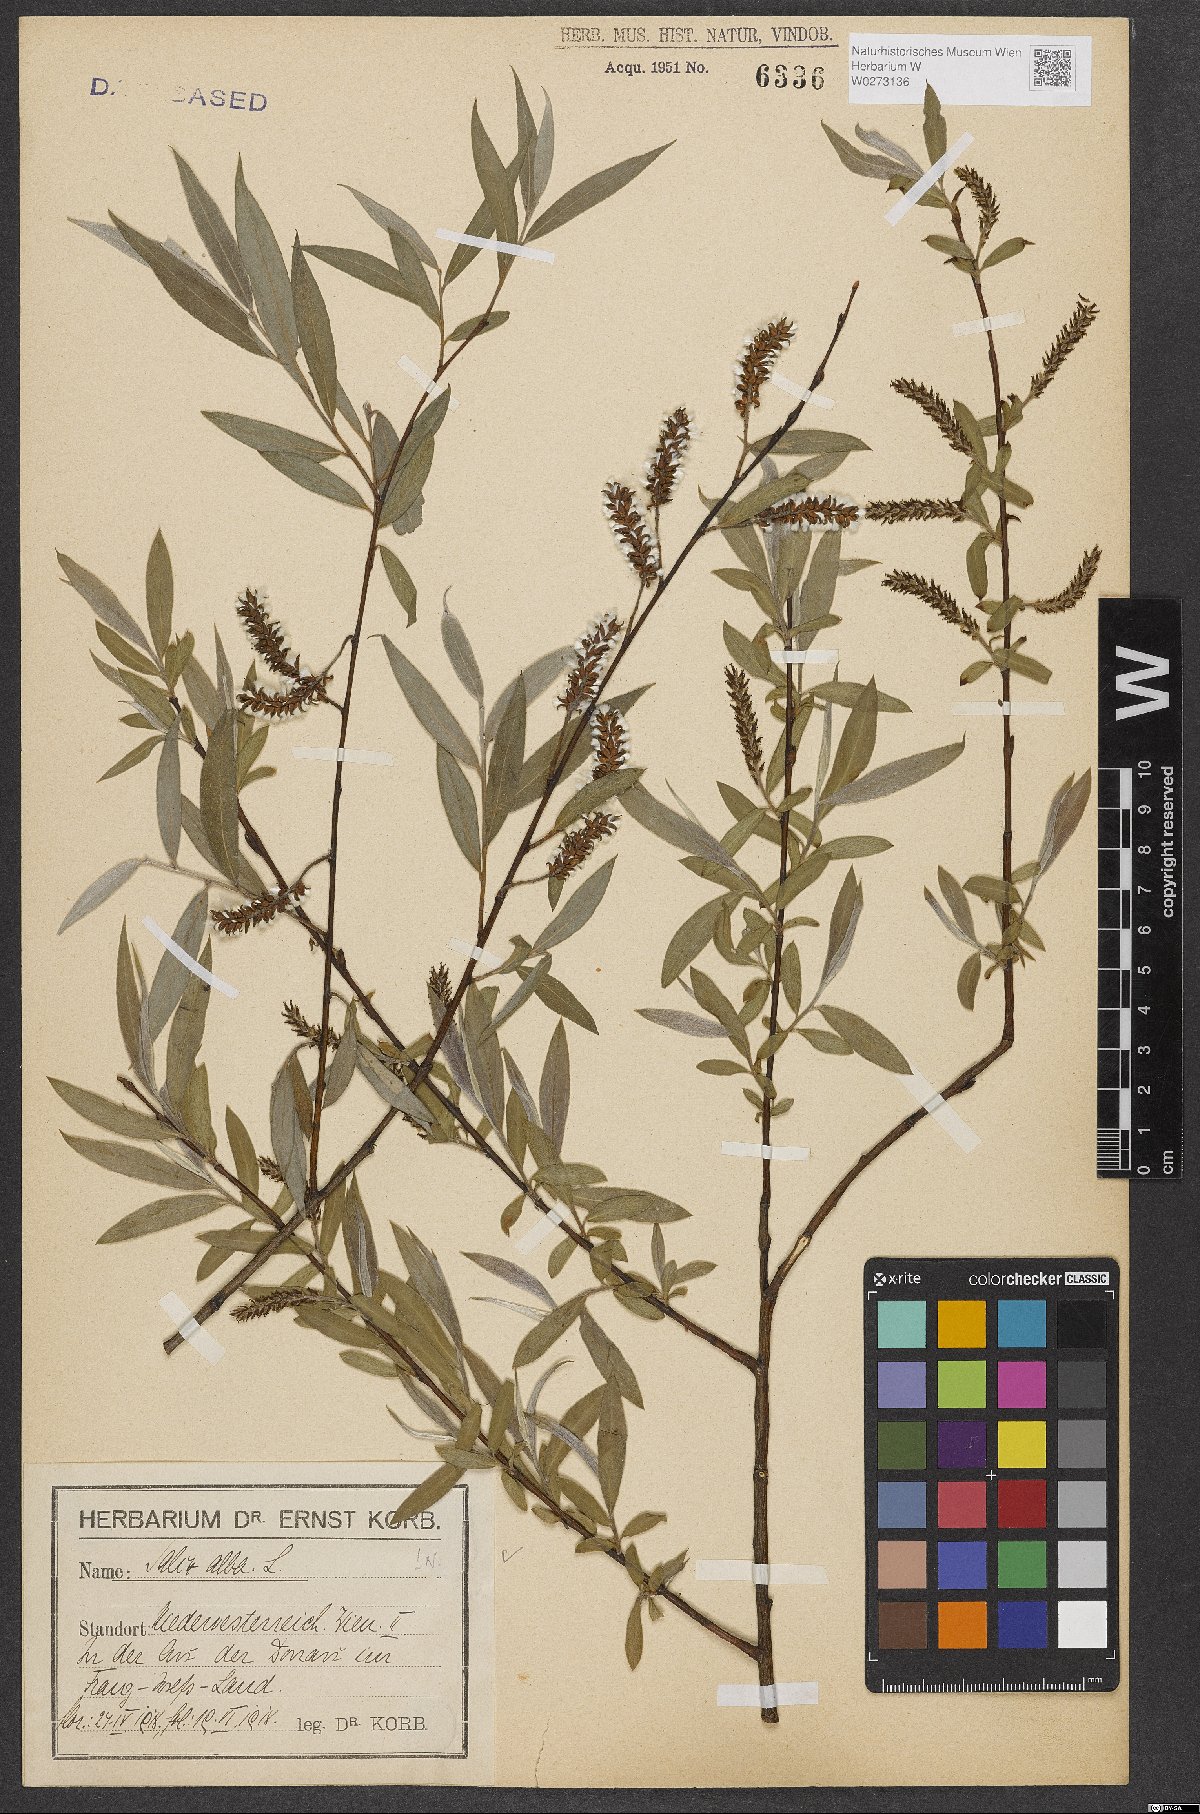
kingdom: Plantae
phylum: Tracheophyta
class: Magnoliopsida
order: Malpighiales
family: Salicaceae
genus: Salix
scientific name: Salix alba
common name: White willow
